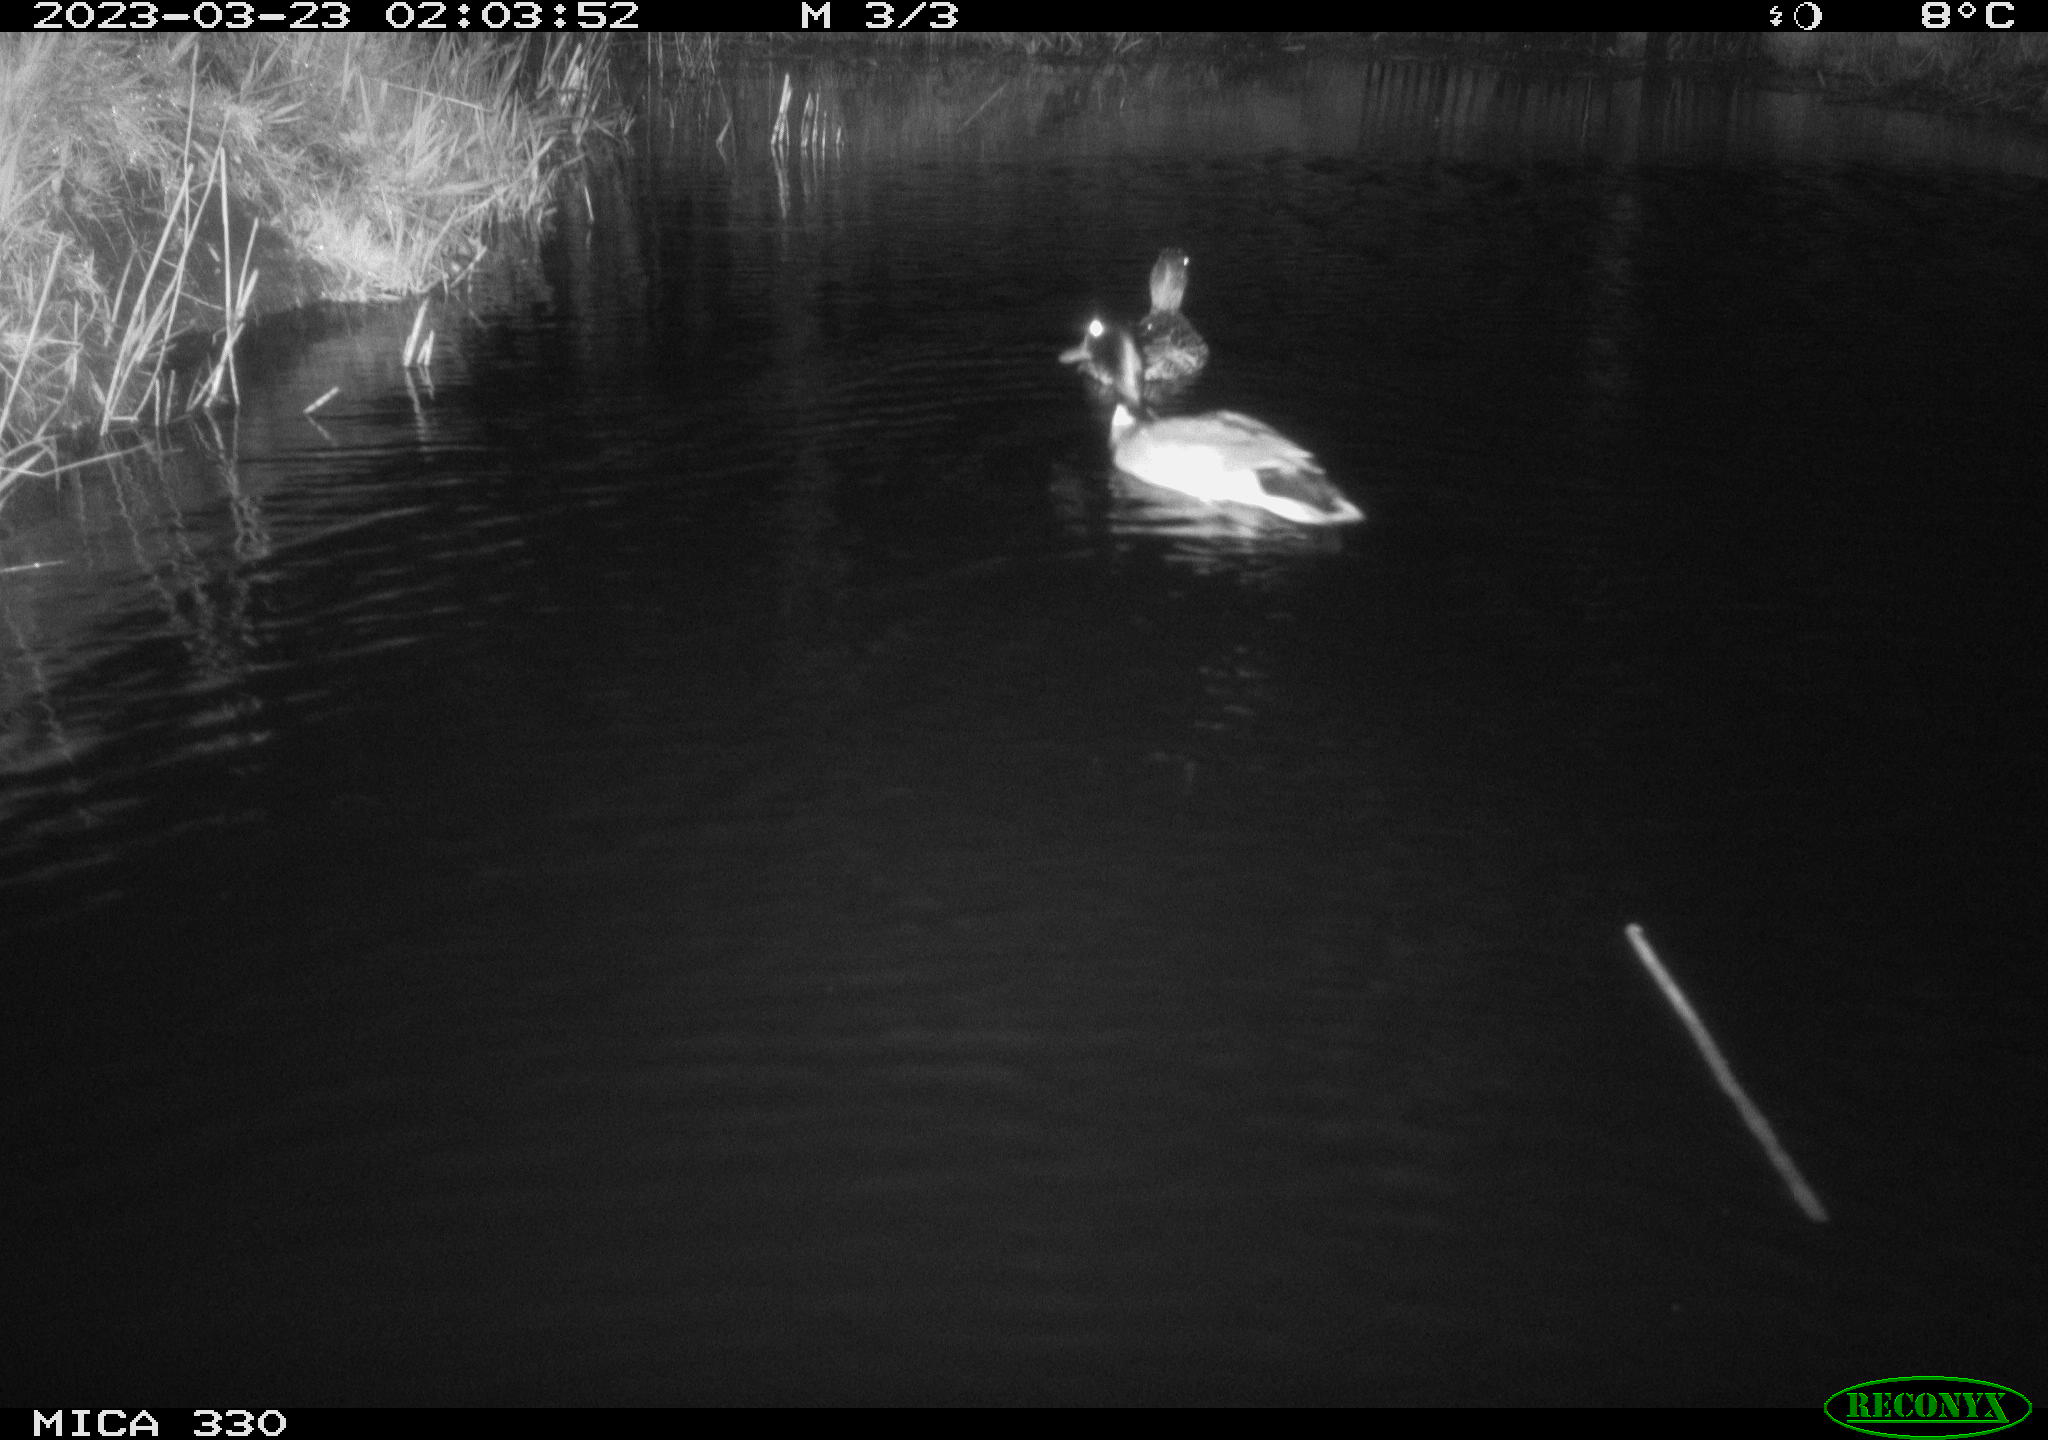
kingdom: Animalia
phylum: Chordata
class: Aves
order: Anseriformes
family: Anatidae
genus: Anas
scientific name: Anas platyrhynchos
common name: Mallard
